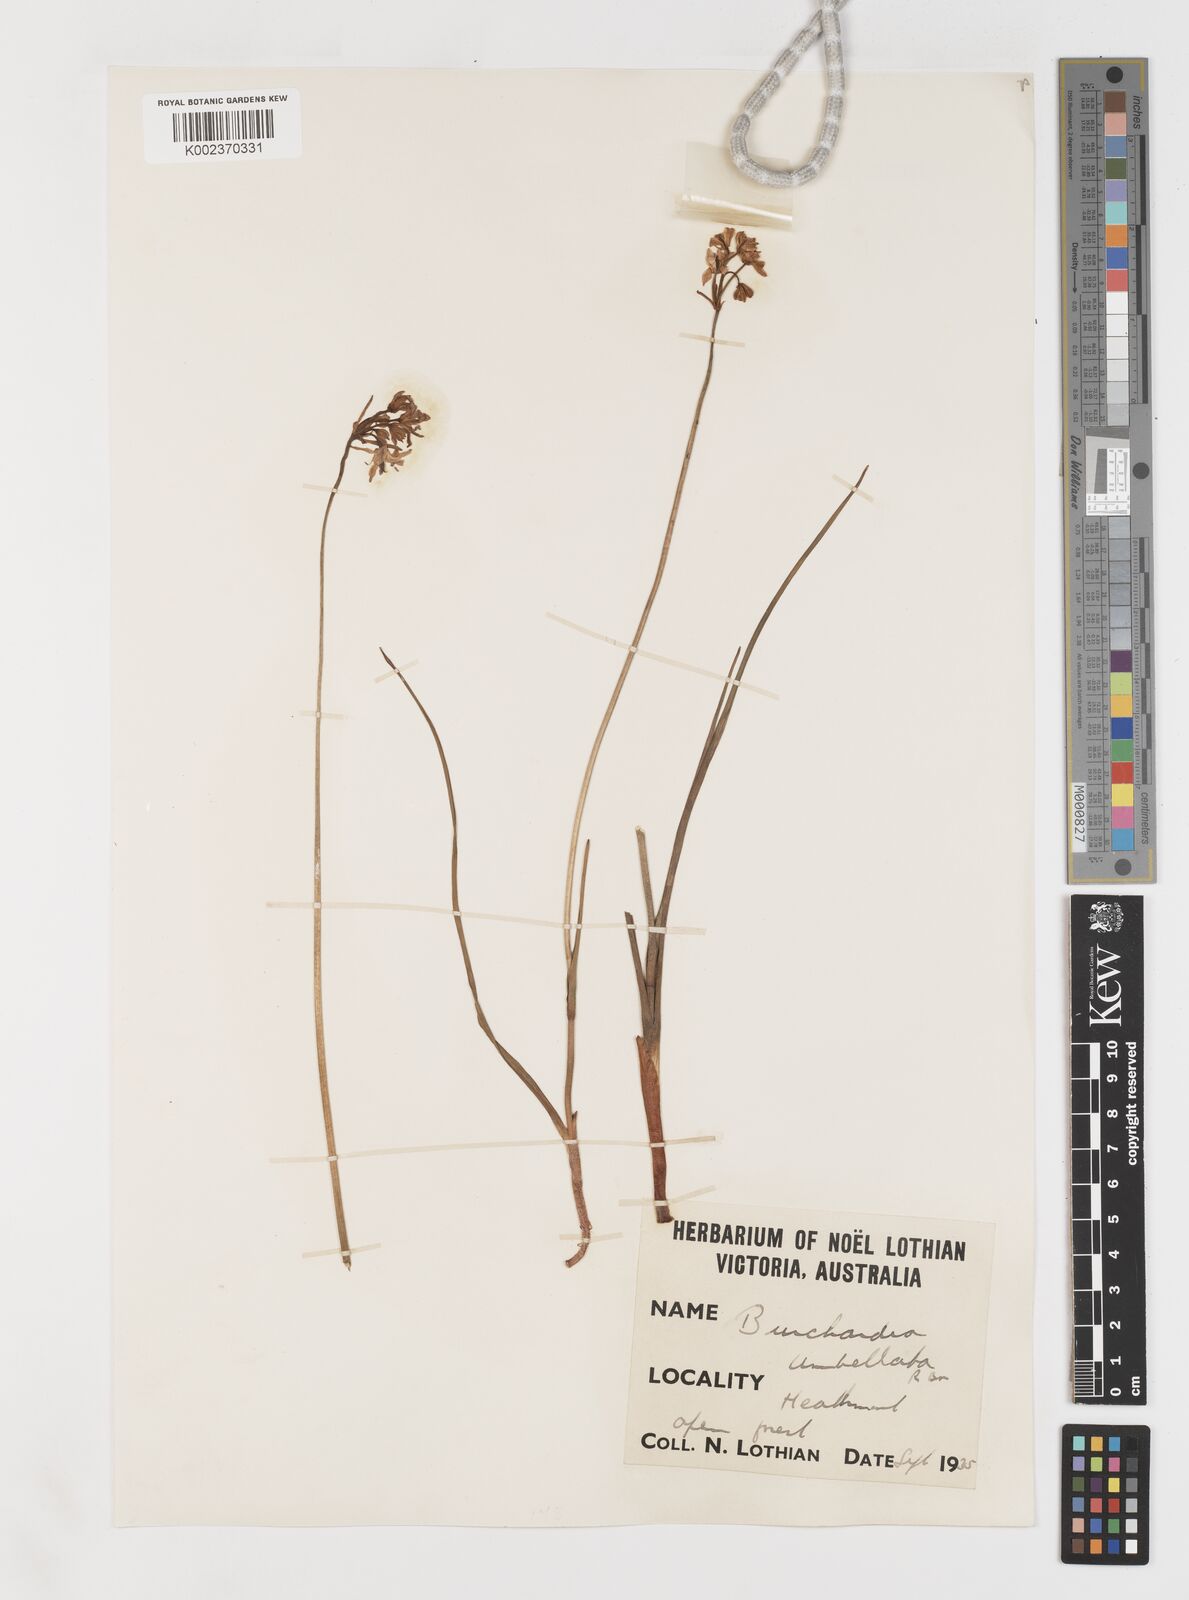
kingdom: Plantae
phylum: Tracheophyta
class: Liliopsida
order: Liliales
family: Colchicaceae
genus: Burchardia
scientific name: Burchardia umbellata
